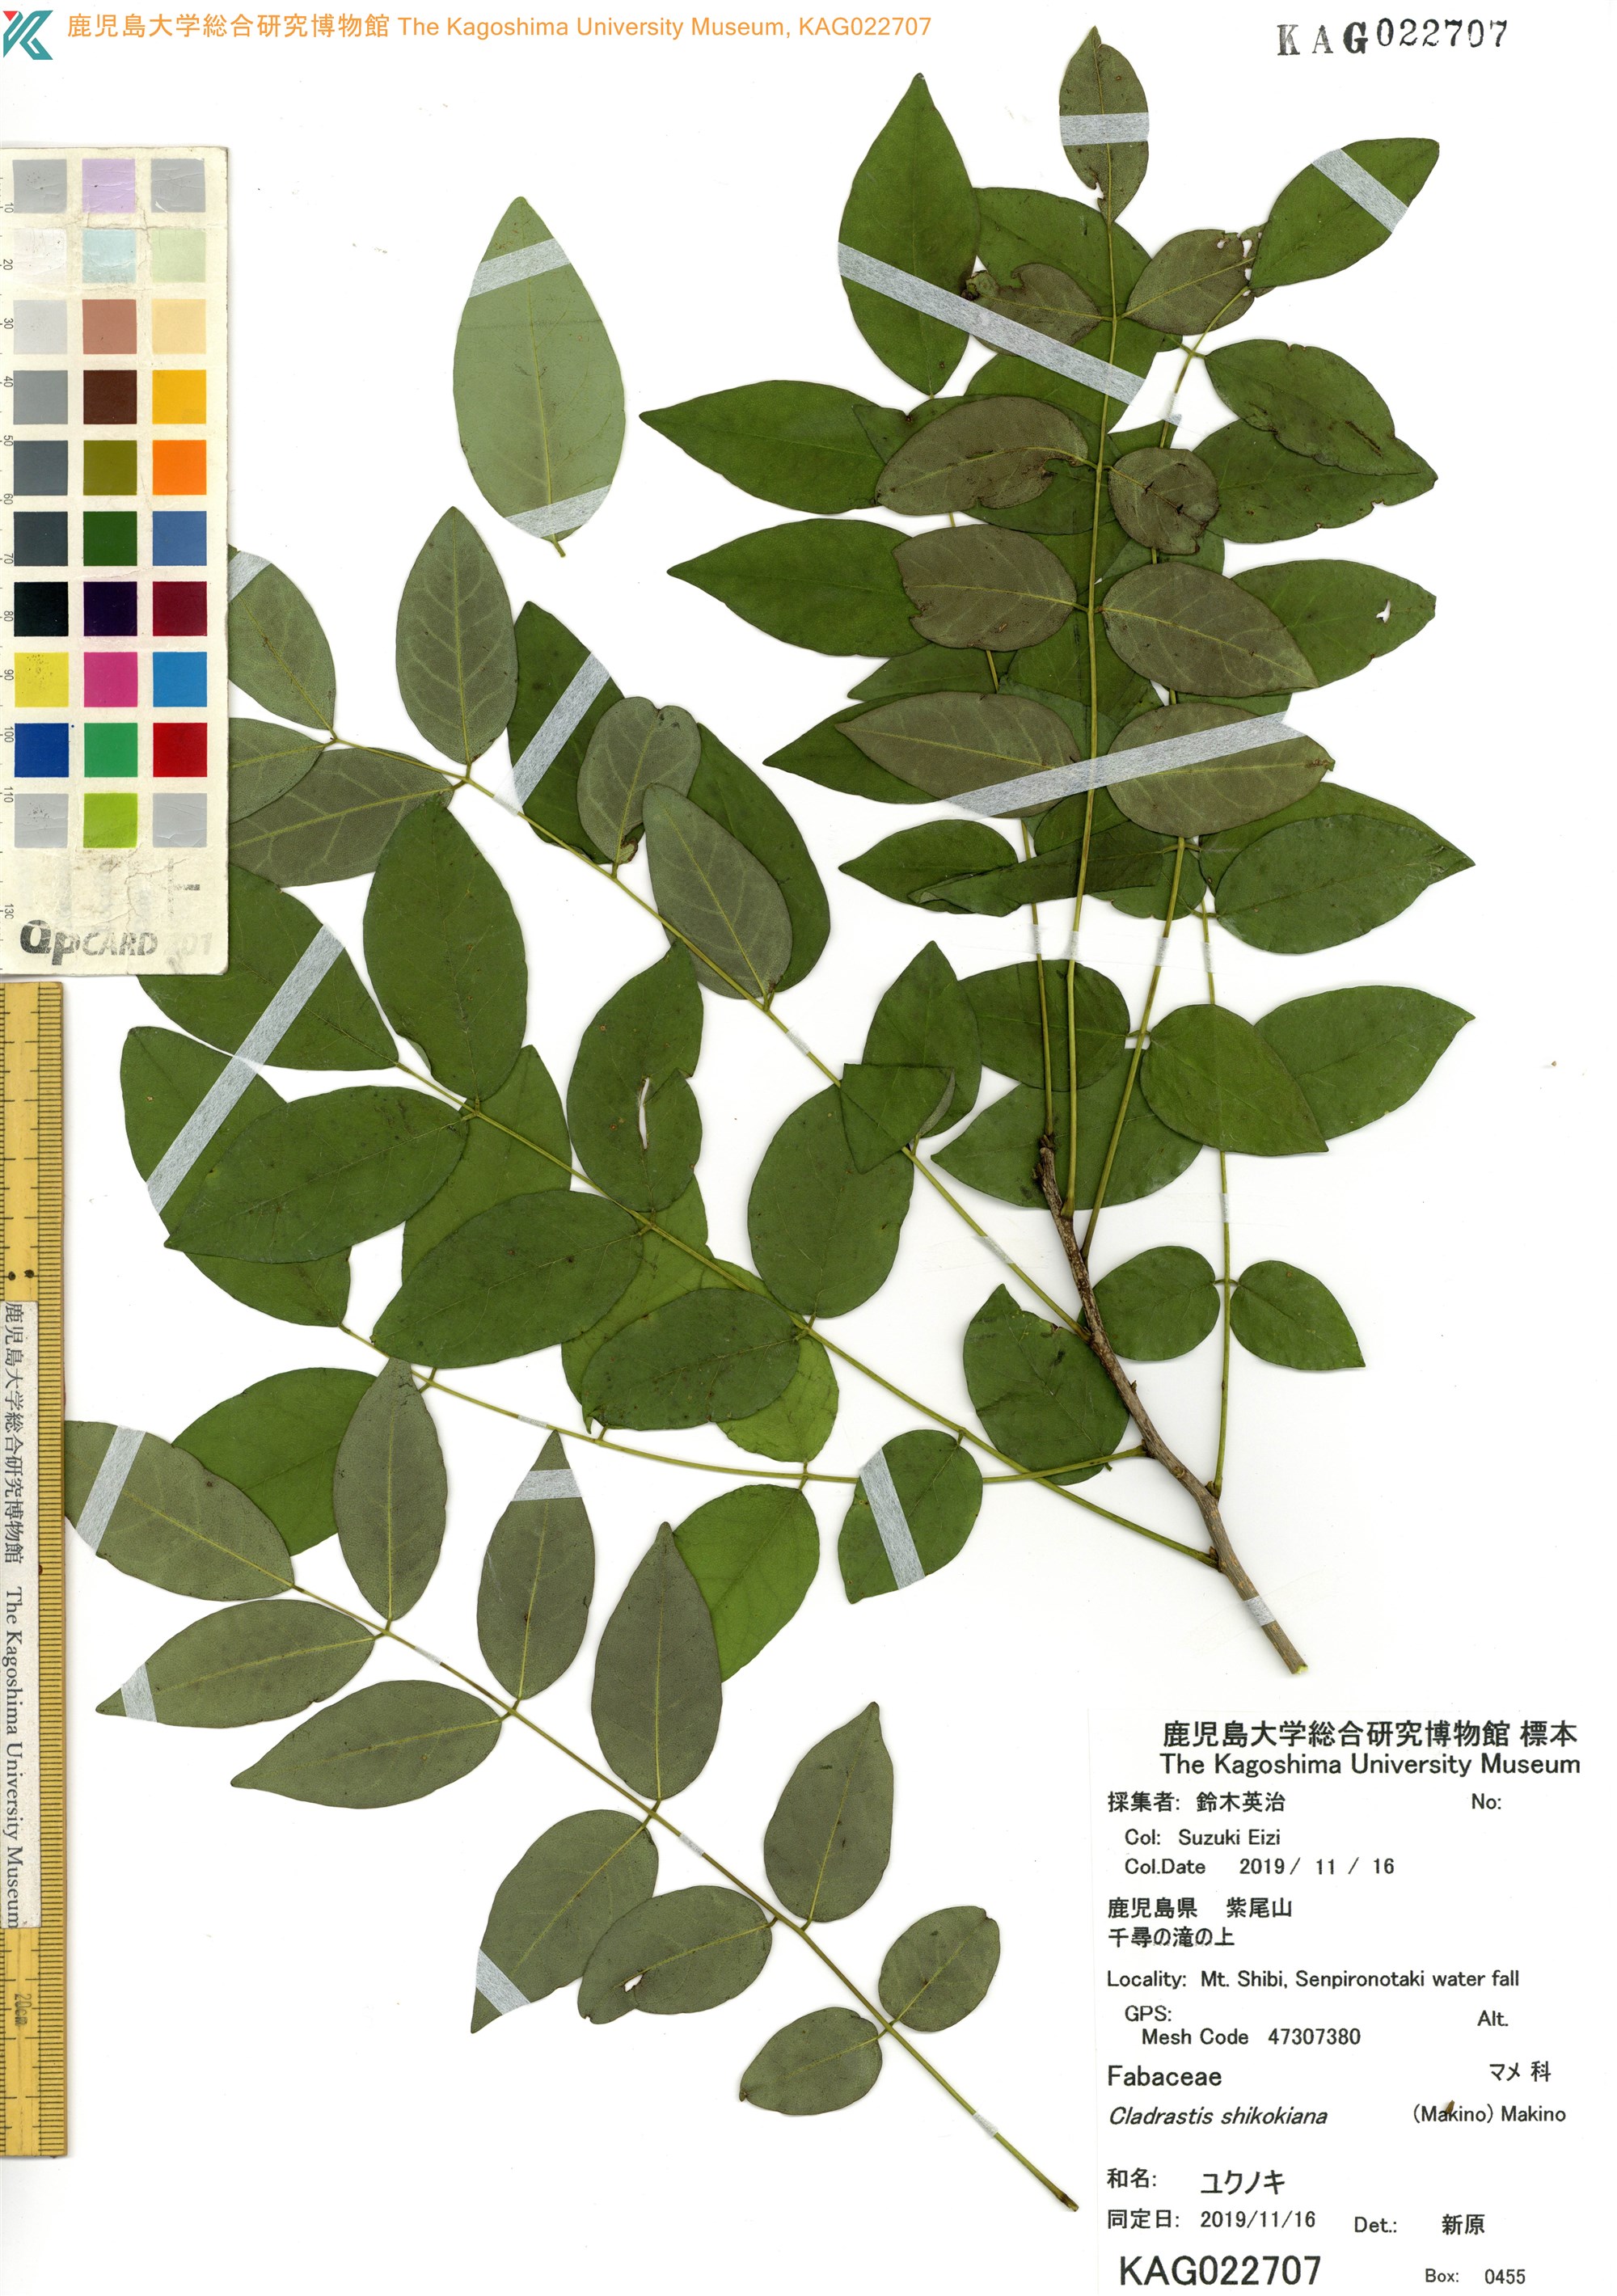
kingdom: Plantae
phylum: Tracheophyta
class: Magnoliopsida
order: Fabales
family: Fabaceae
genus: Cladrastis
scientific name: Cladrastis shikokiana
